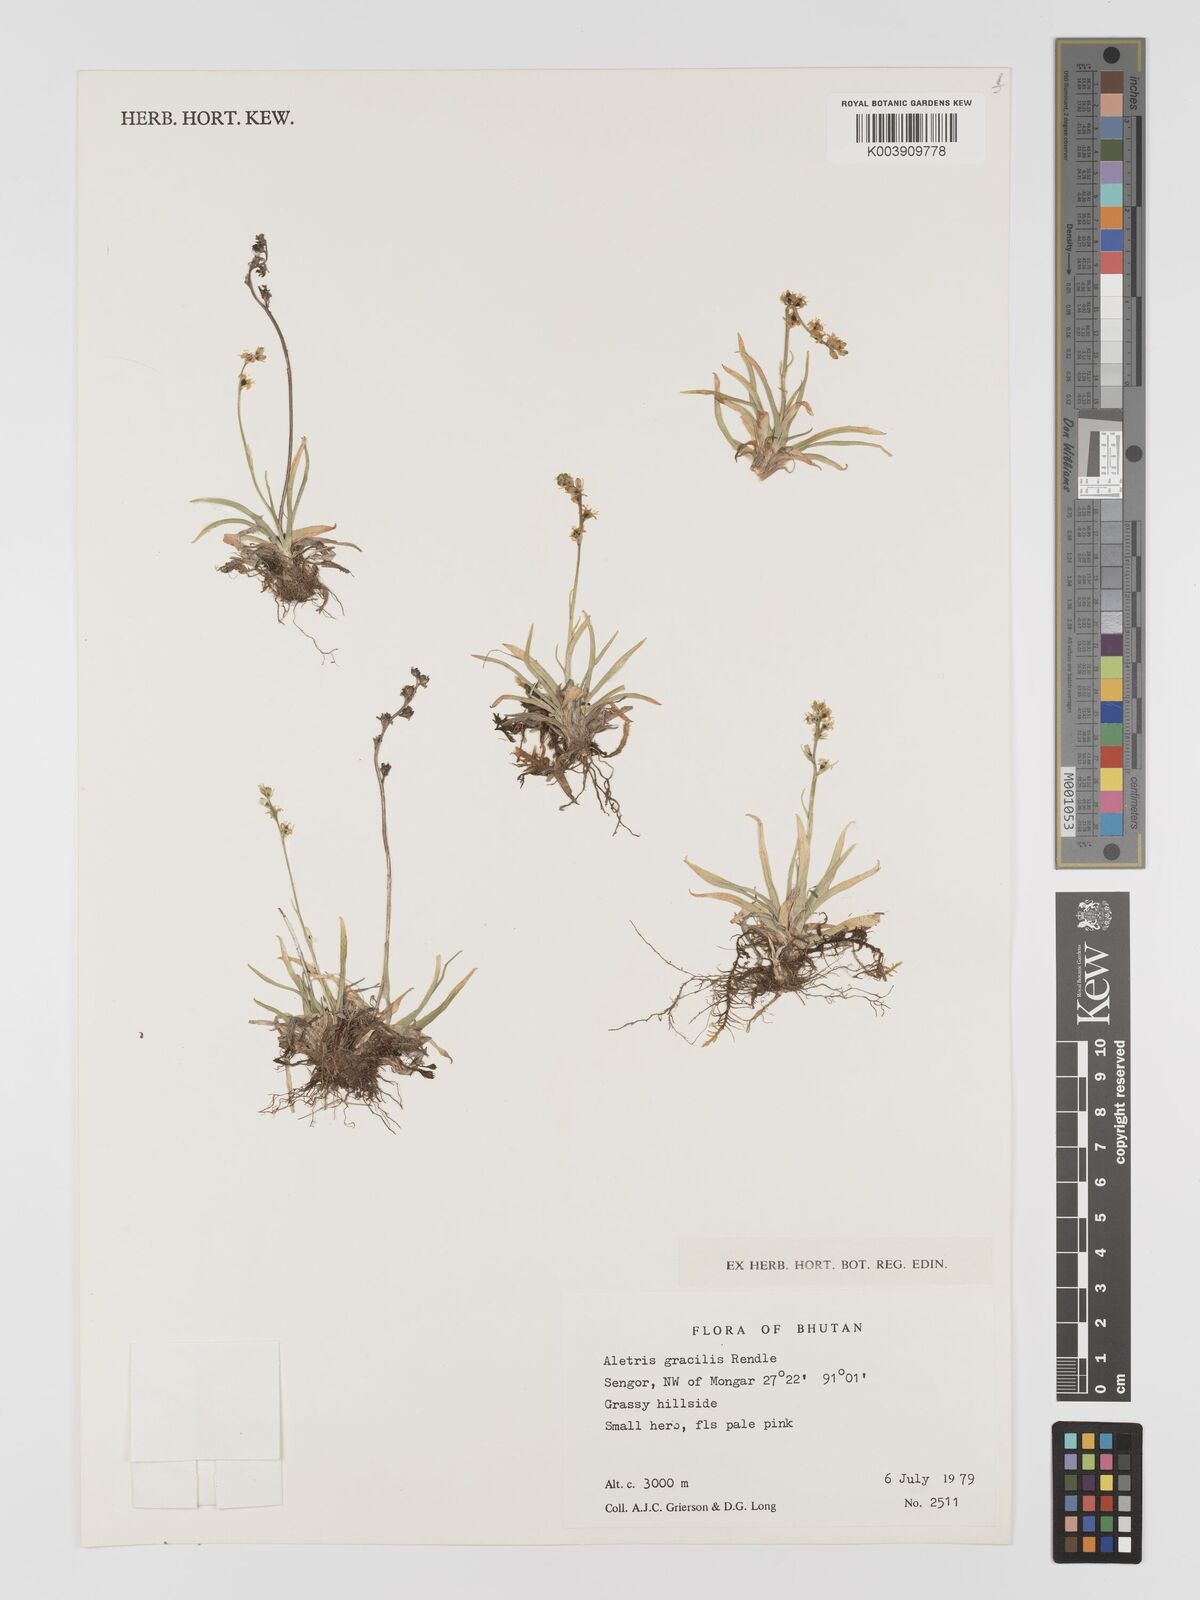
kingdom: Plantae
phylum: Tracheophyta
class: Liliopsida
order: Dioscoreales
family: Nartheciaceae
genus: Aletris
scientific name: Aletris gracilis
